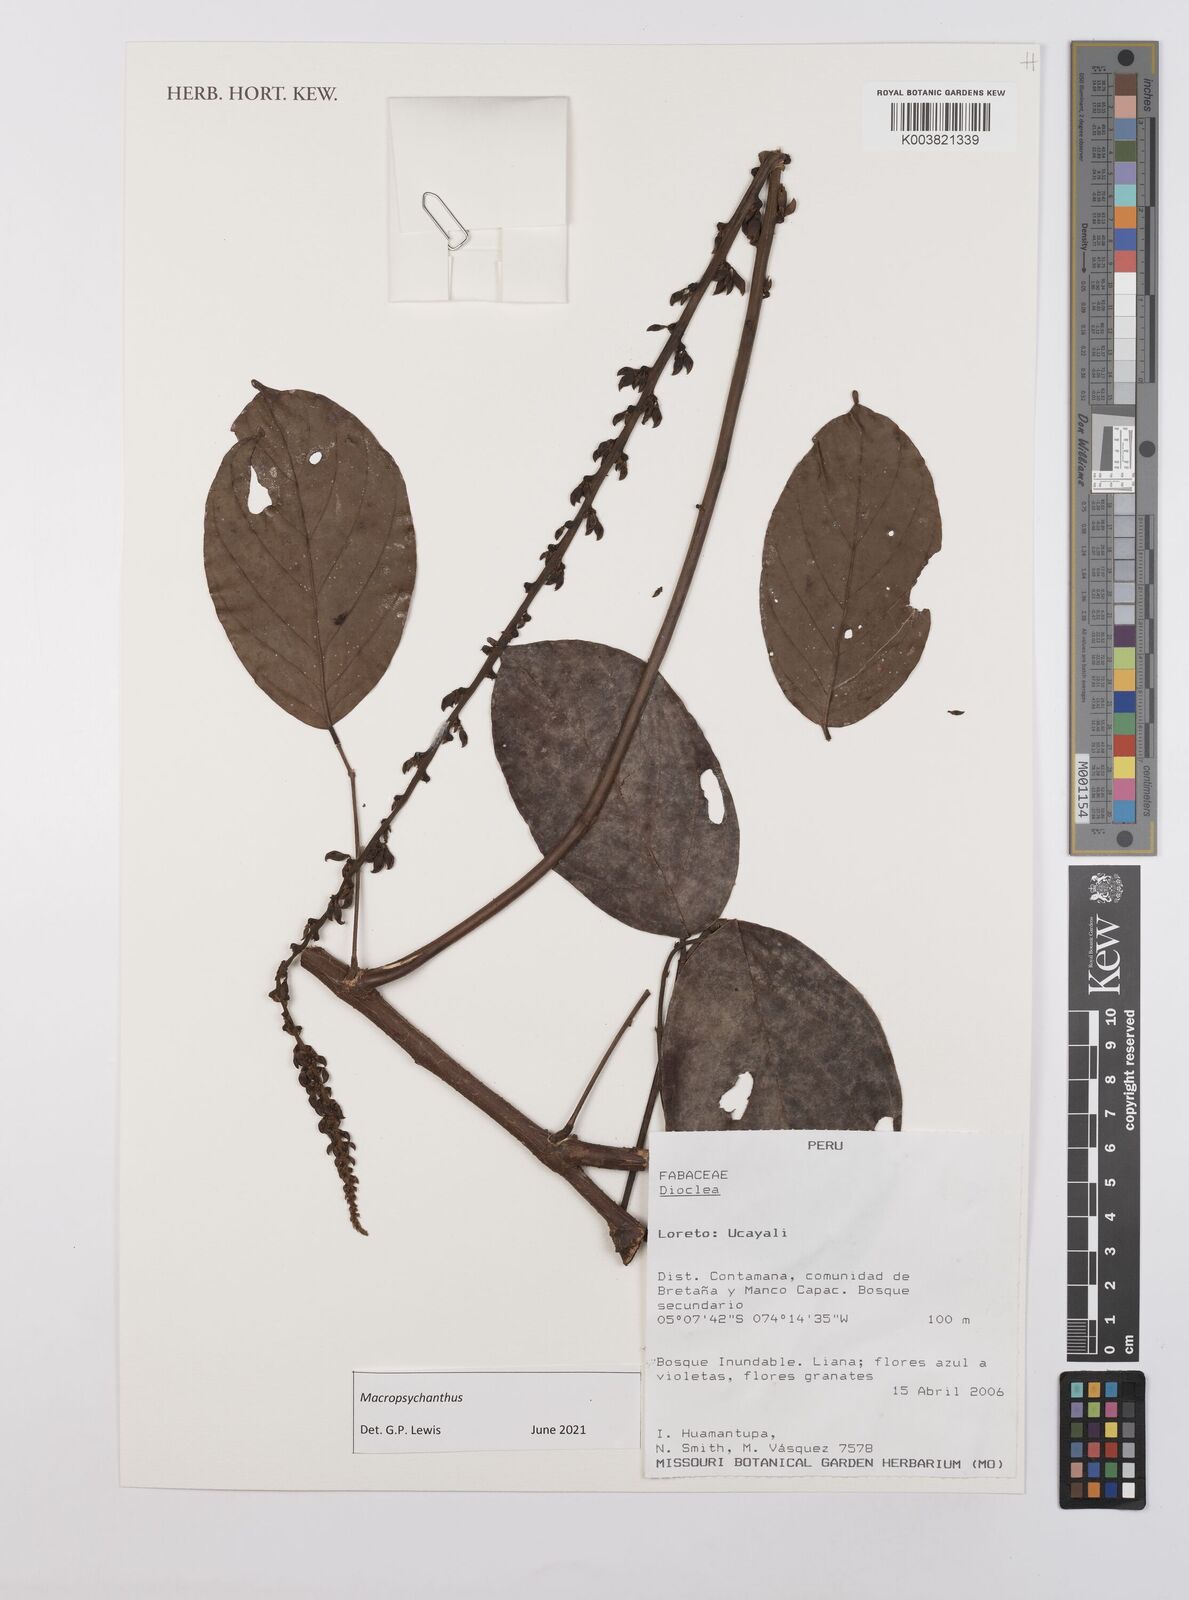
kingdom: Plantae
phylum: Tracheophyta
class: Magnoliopsida
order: Fabales
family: Fabaceae
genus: Macropsychanthus
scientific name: Macropsychanthus
